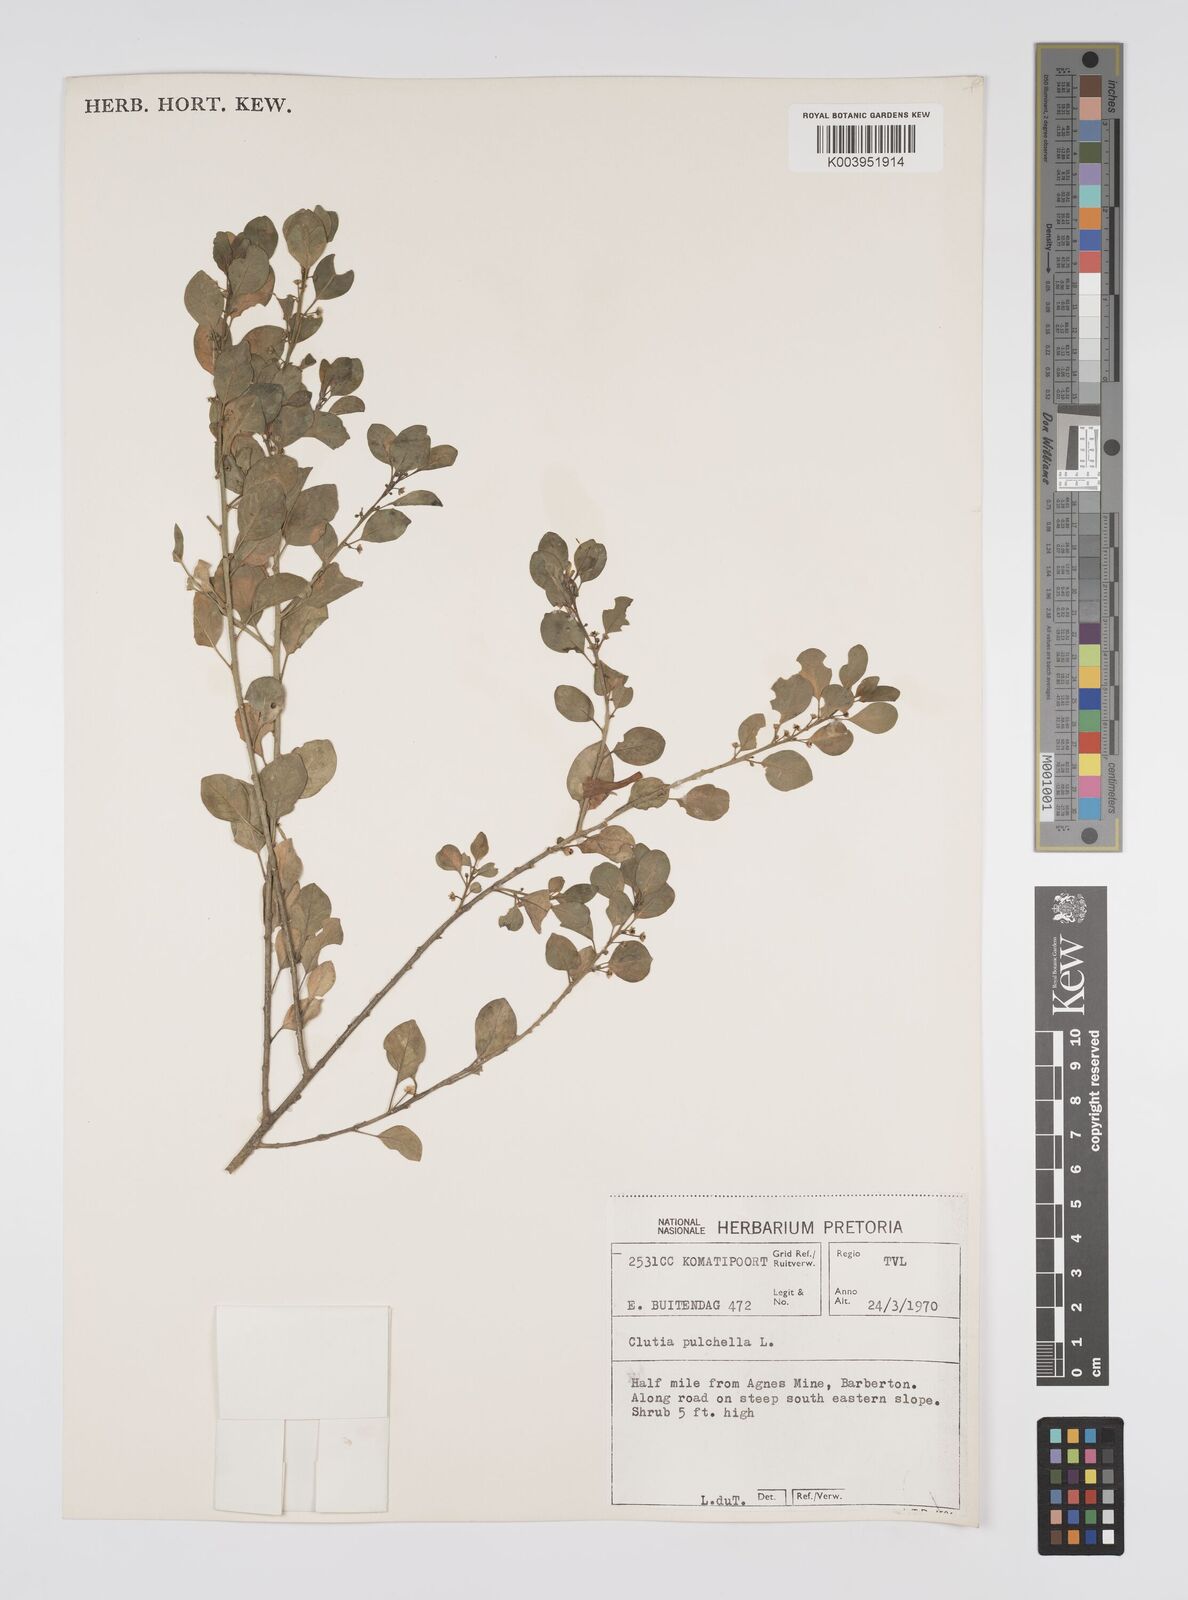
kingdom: Plantae
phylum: Tracheophyta
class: Magnoliopsida
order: Malpighiales
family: Peraceae
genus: Clutia
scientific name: Clutia pulchella
